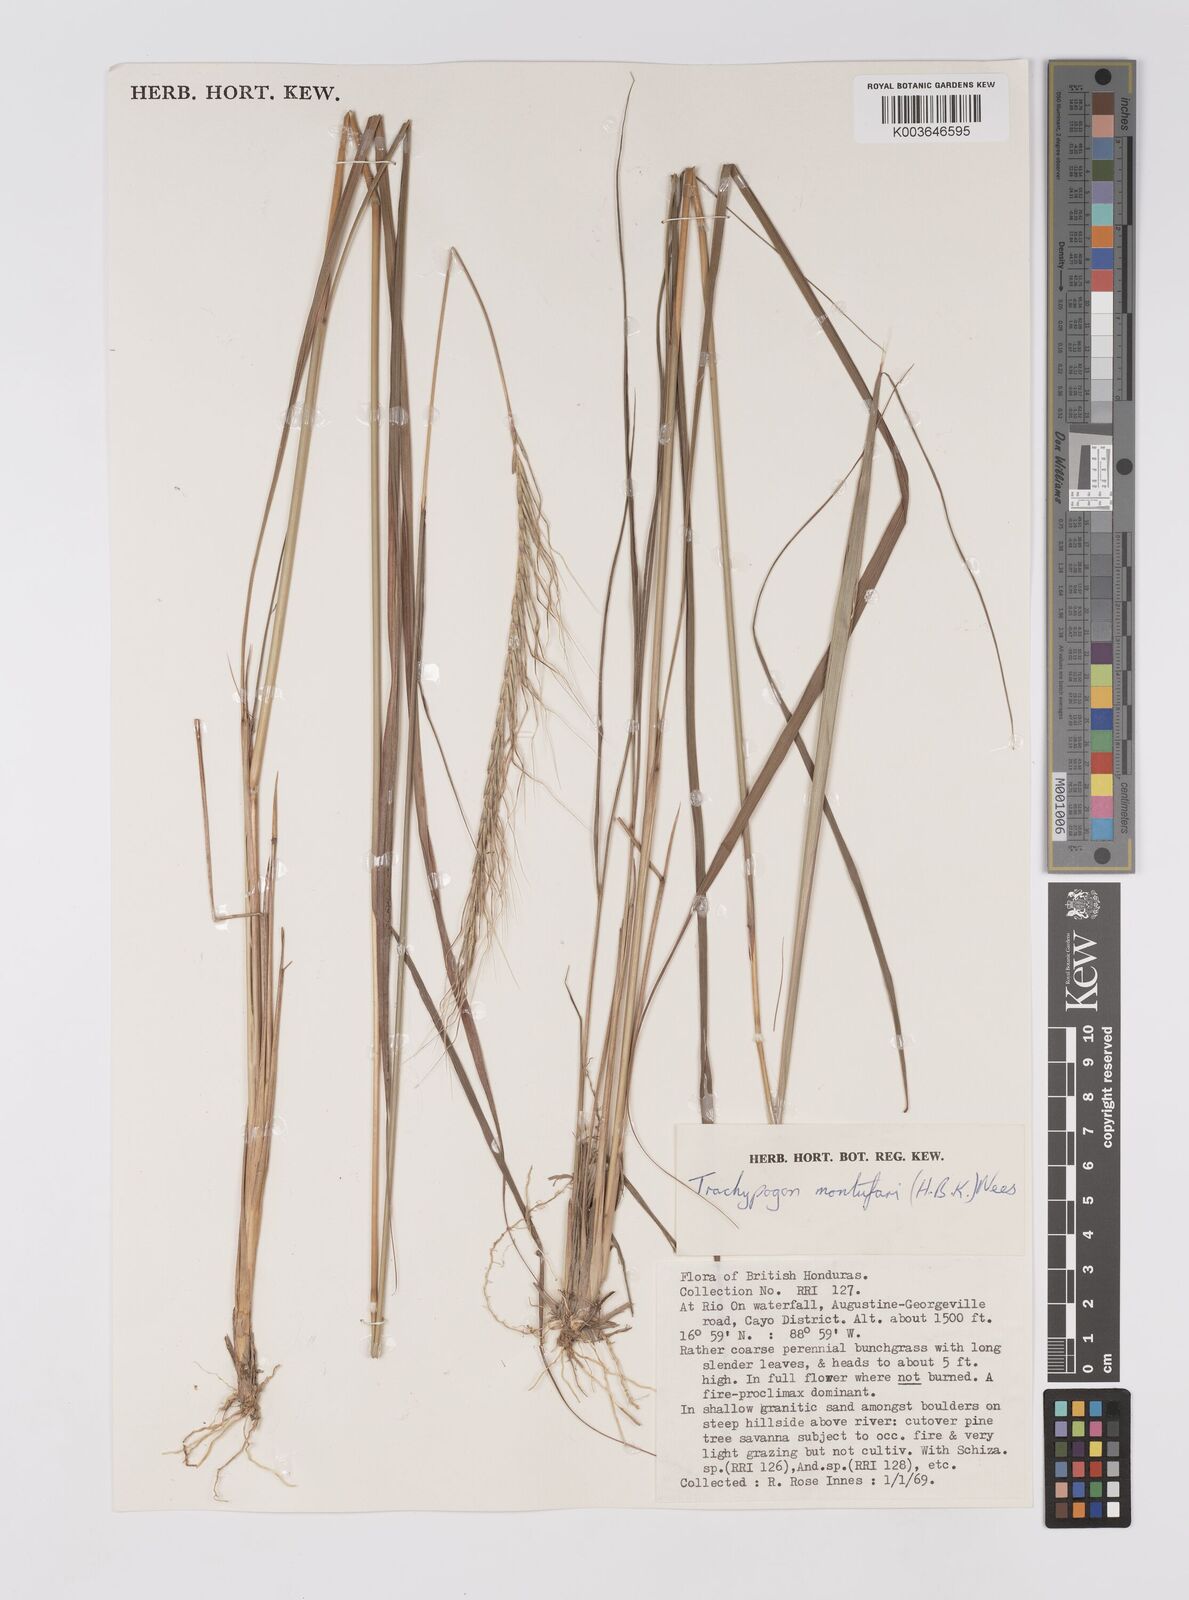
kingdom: Plantae
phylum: Tracheophyta
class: Liliopsida
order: Poales
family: Poaceae
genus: Trachypogon
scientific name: Trachypogon spicatus
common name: Crinkle-awn
